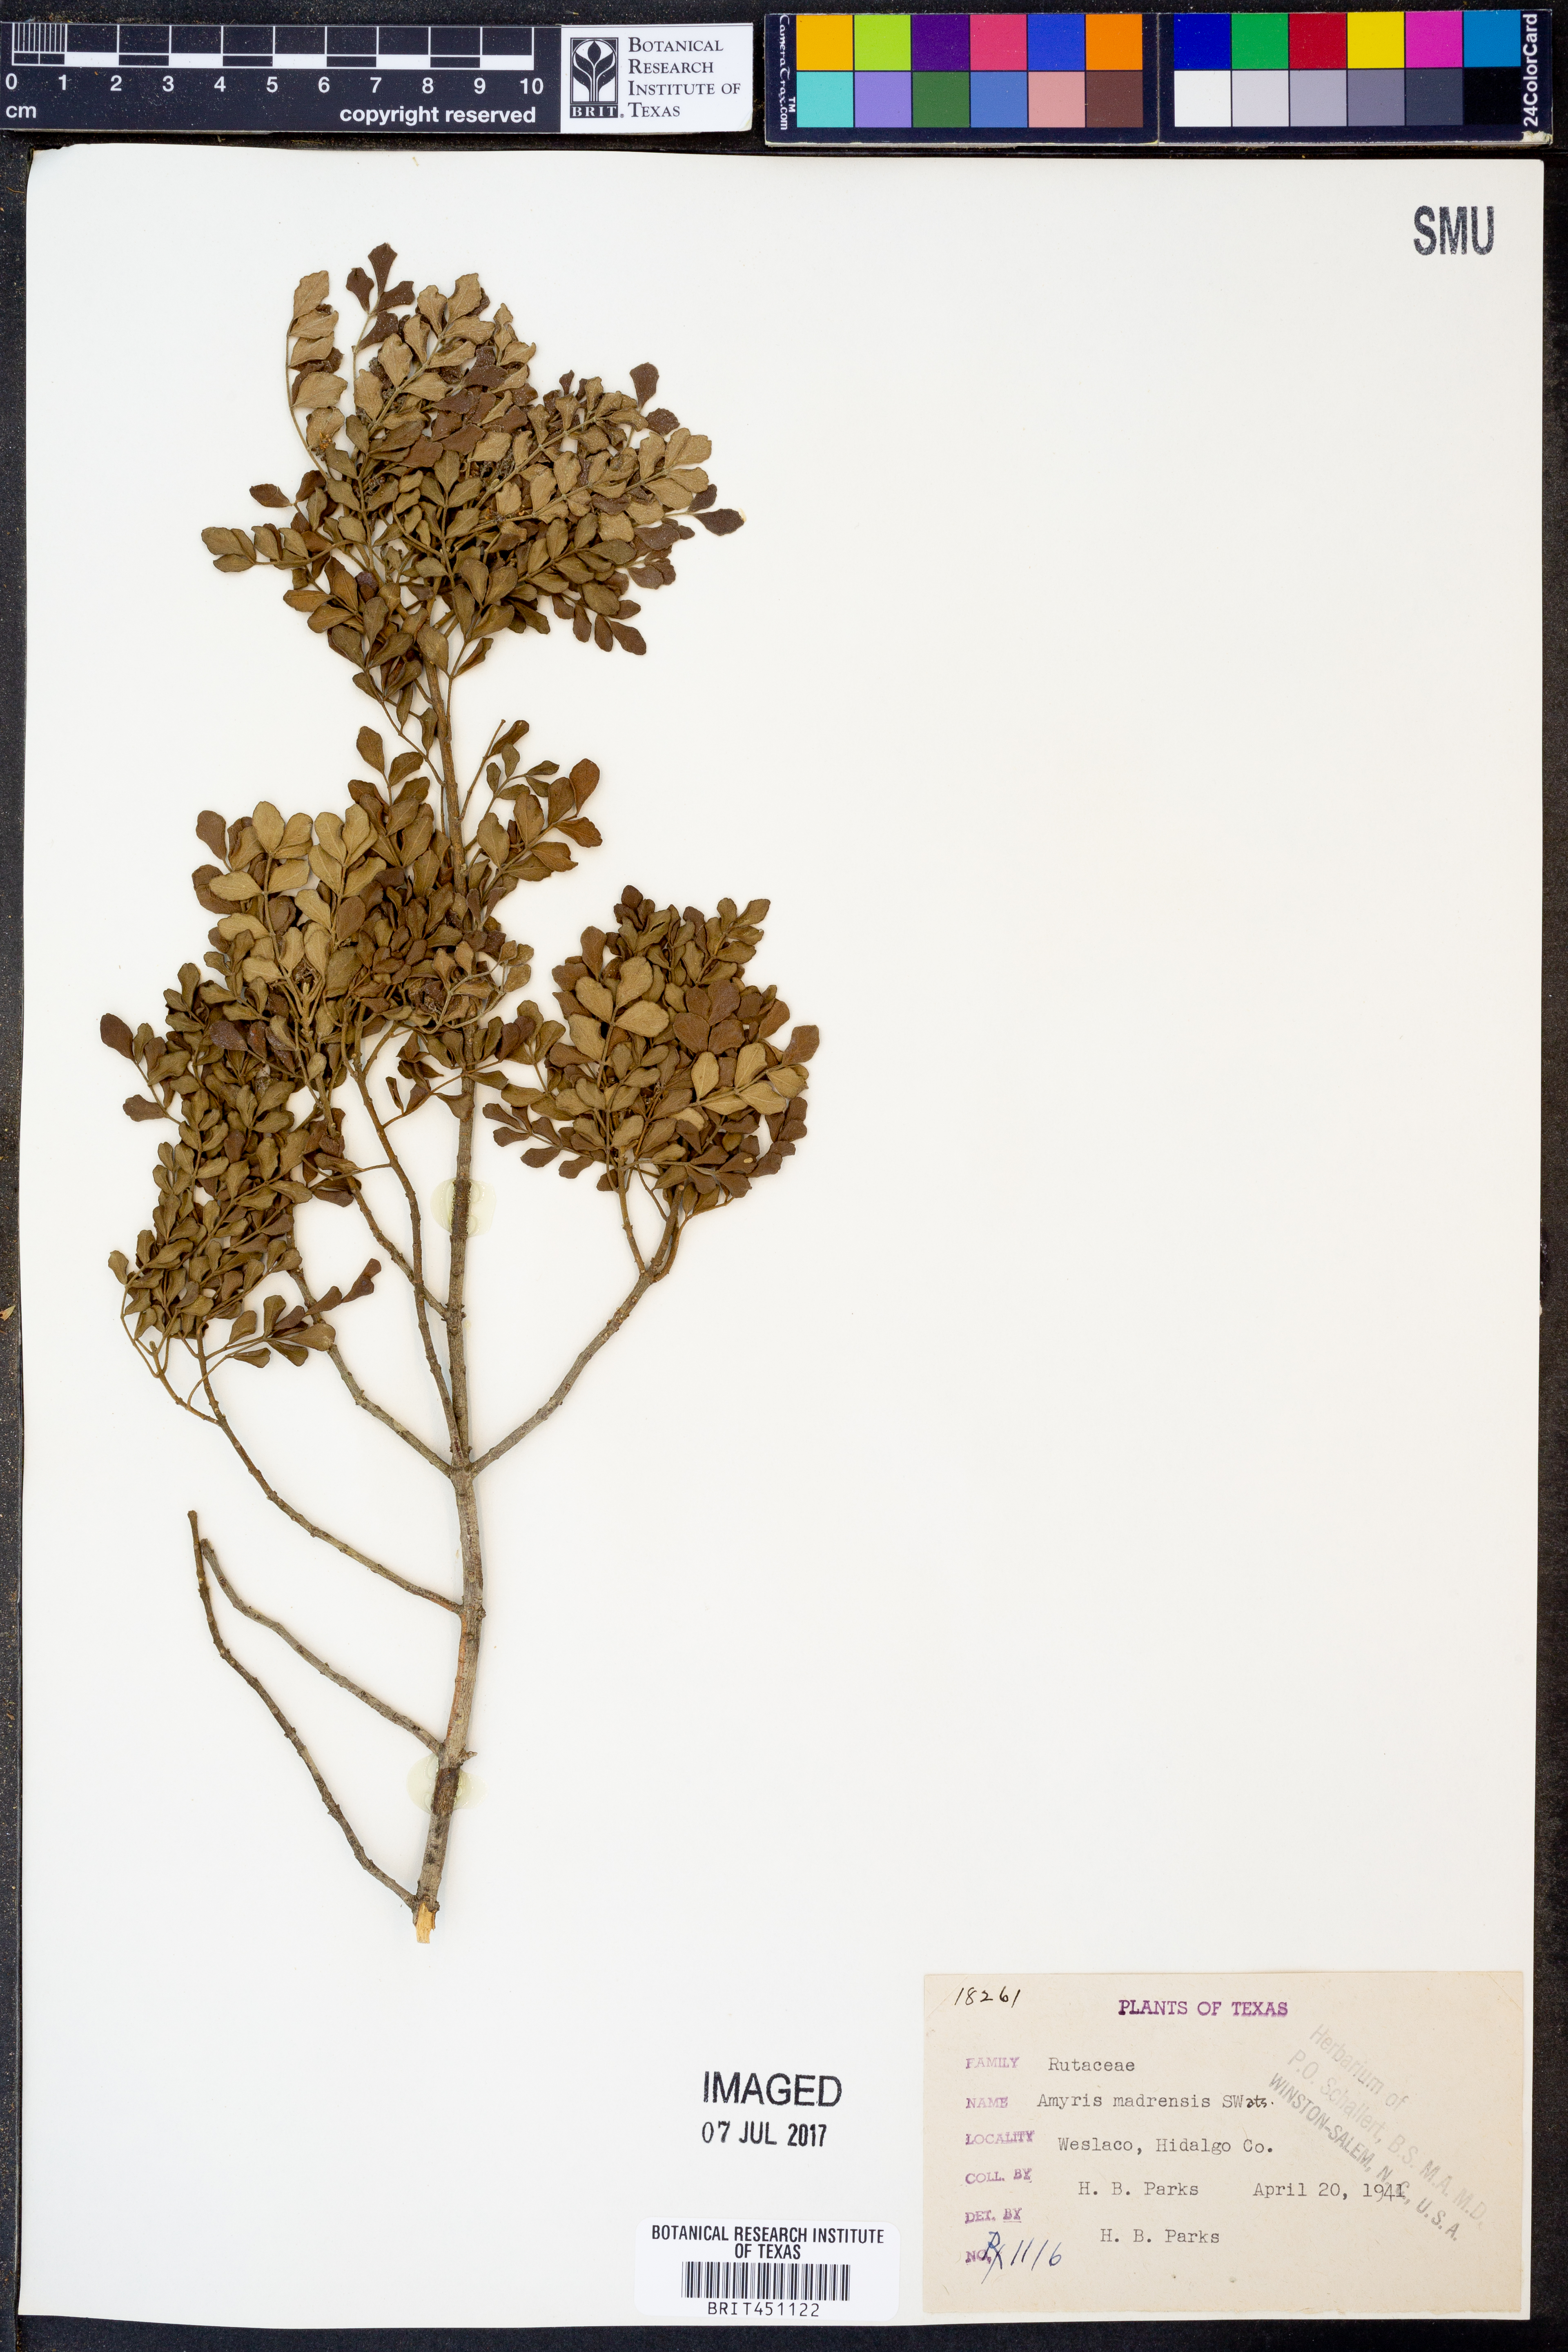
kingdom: Plantae
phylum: Tracheophyta
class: Magnoliopsida
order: Sapindales
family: Rutaceae
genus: Amyris
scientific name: Amyris madrensis
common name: Mountain torchwood
